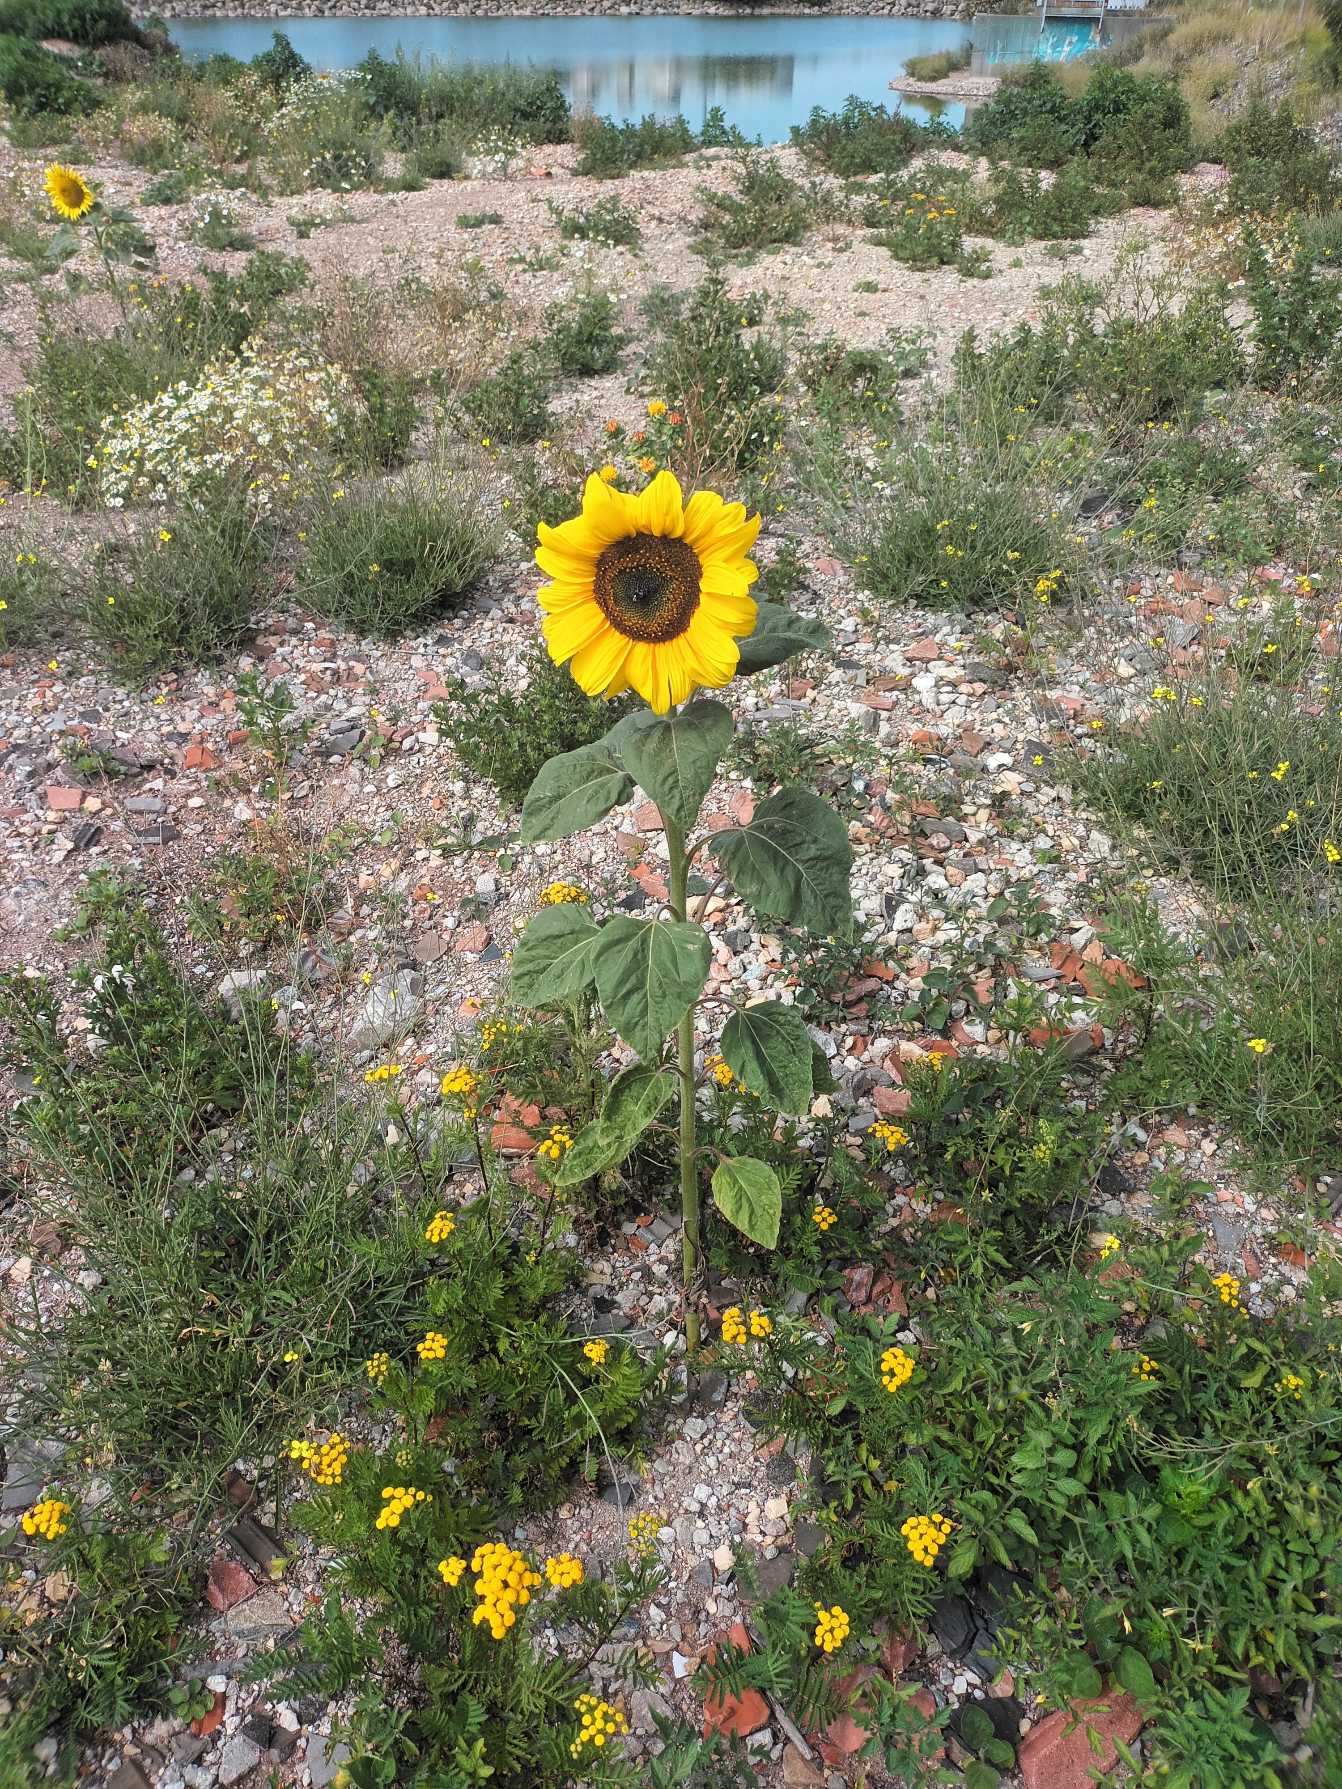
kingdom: Plantae
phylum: Tracheophyta
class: Magnoliopsida
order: Asterales
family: Asteraceae
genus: Helianthus
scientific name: Helianthus annuus
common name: Solsikke
